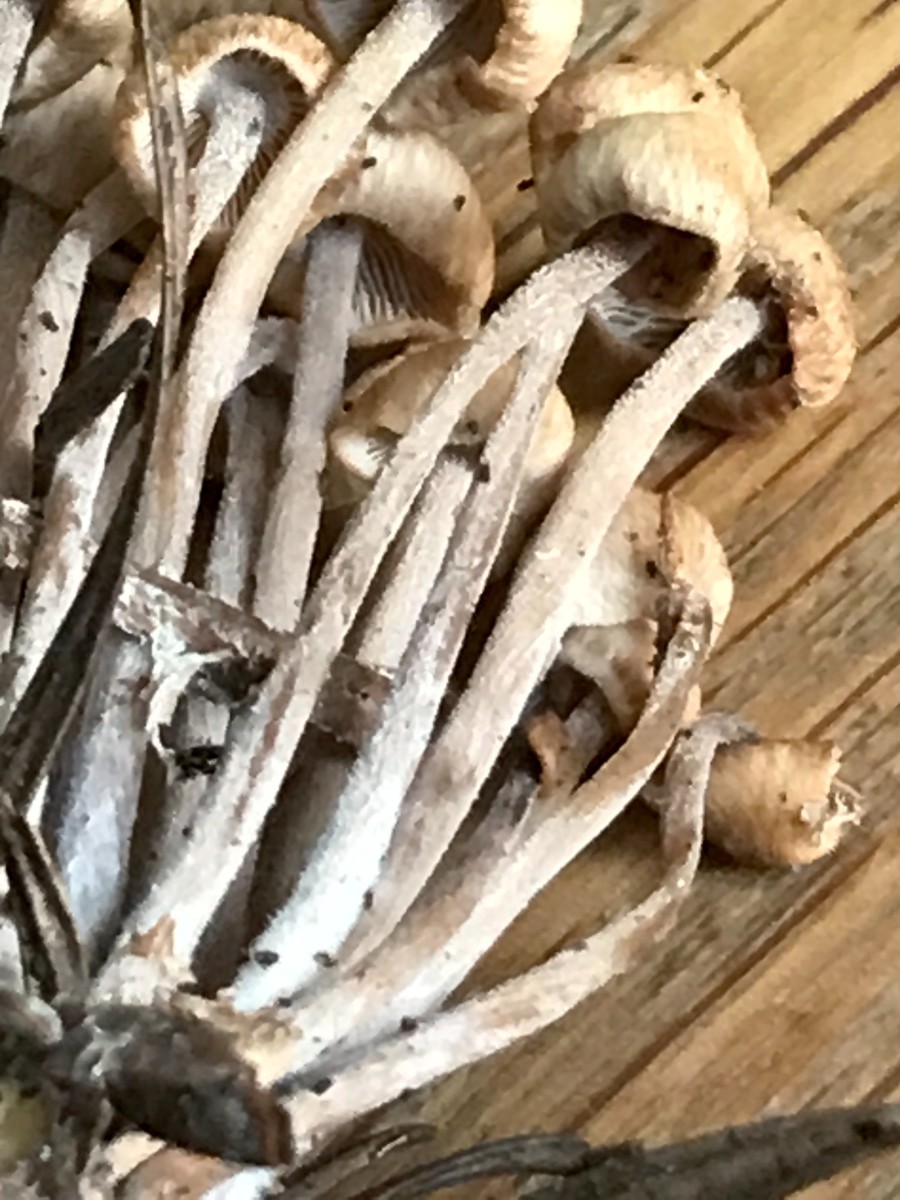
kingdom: Fungi
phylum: Basidiomycota
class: Agaricomycetes
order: Agaricales
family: Omphalotaceae
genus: Collybiopsis
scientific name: Collybiopsis confluens
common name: knippe-fladhat
